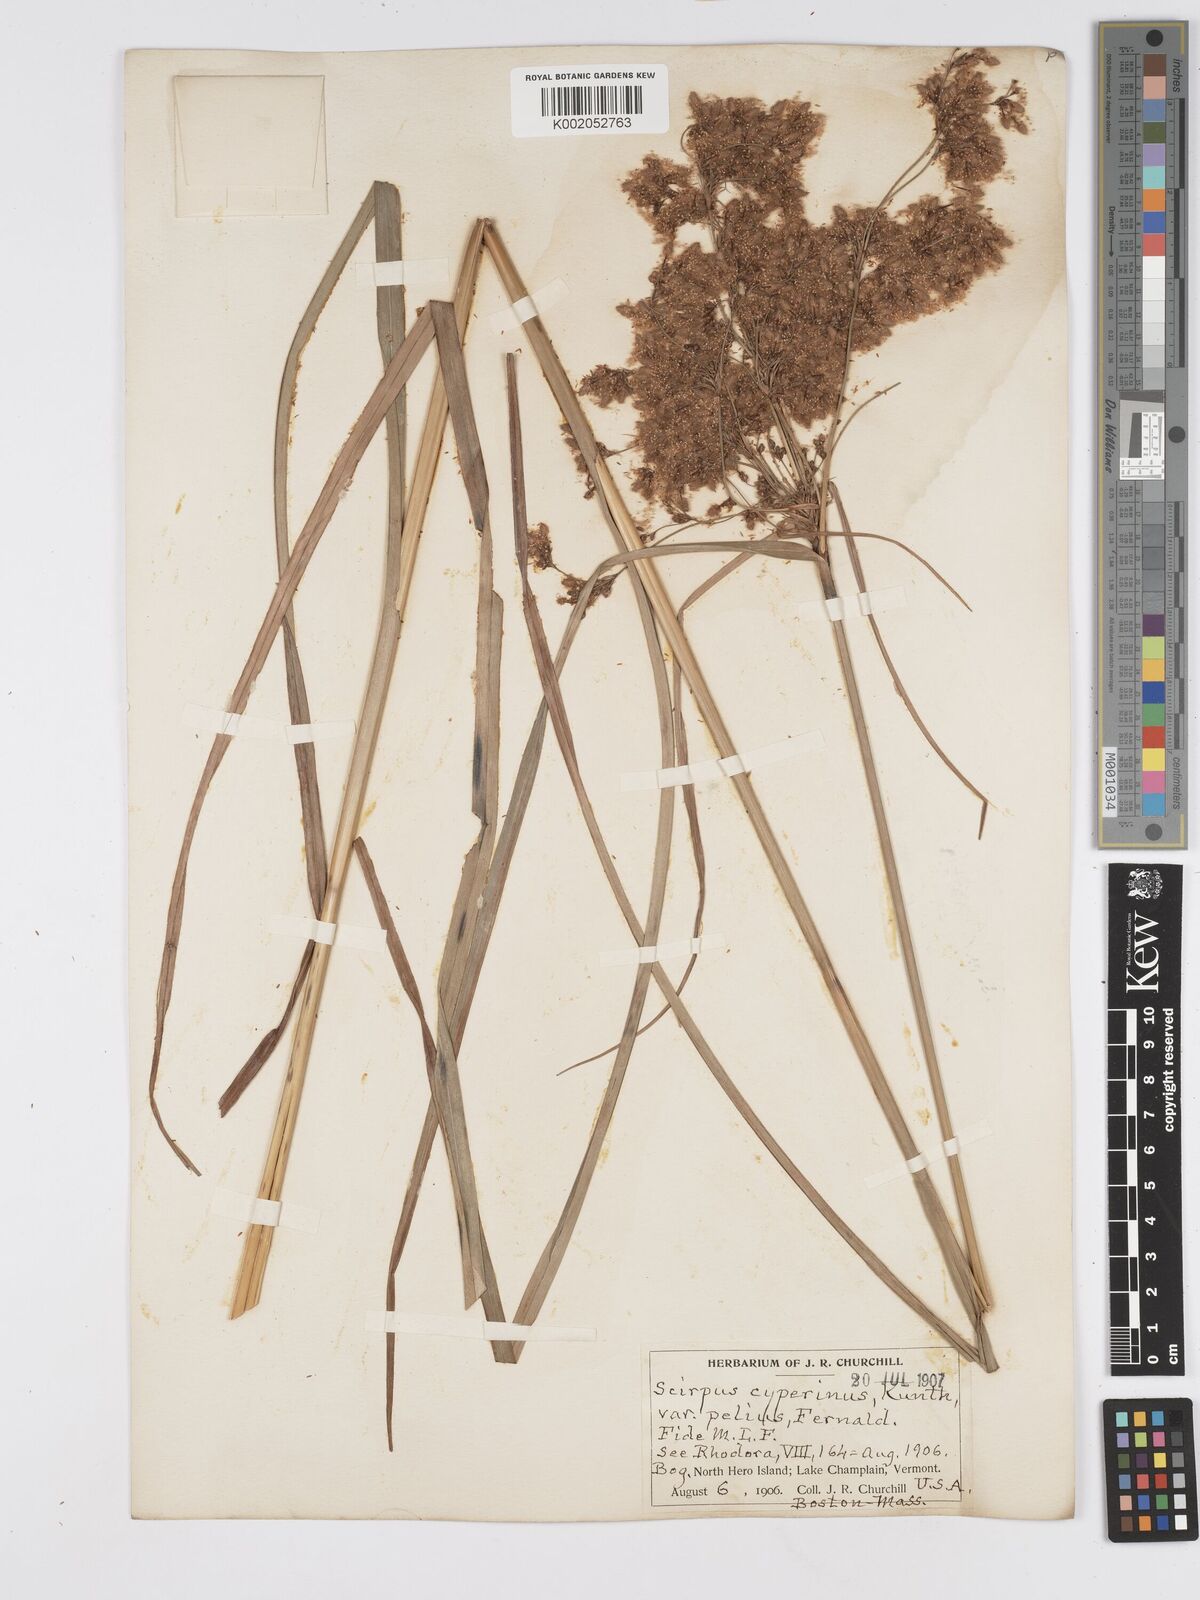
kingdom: Plantae
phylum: Tracheophyta
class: Liliopsida
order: Poales
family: Cyperaceae
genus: Scirpus
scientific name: Scirpus cyperinus
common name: Black-sheathed bulrush
